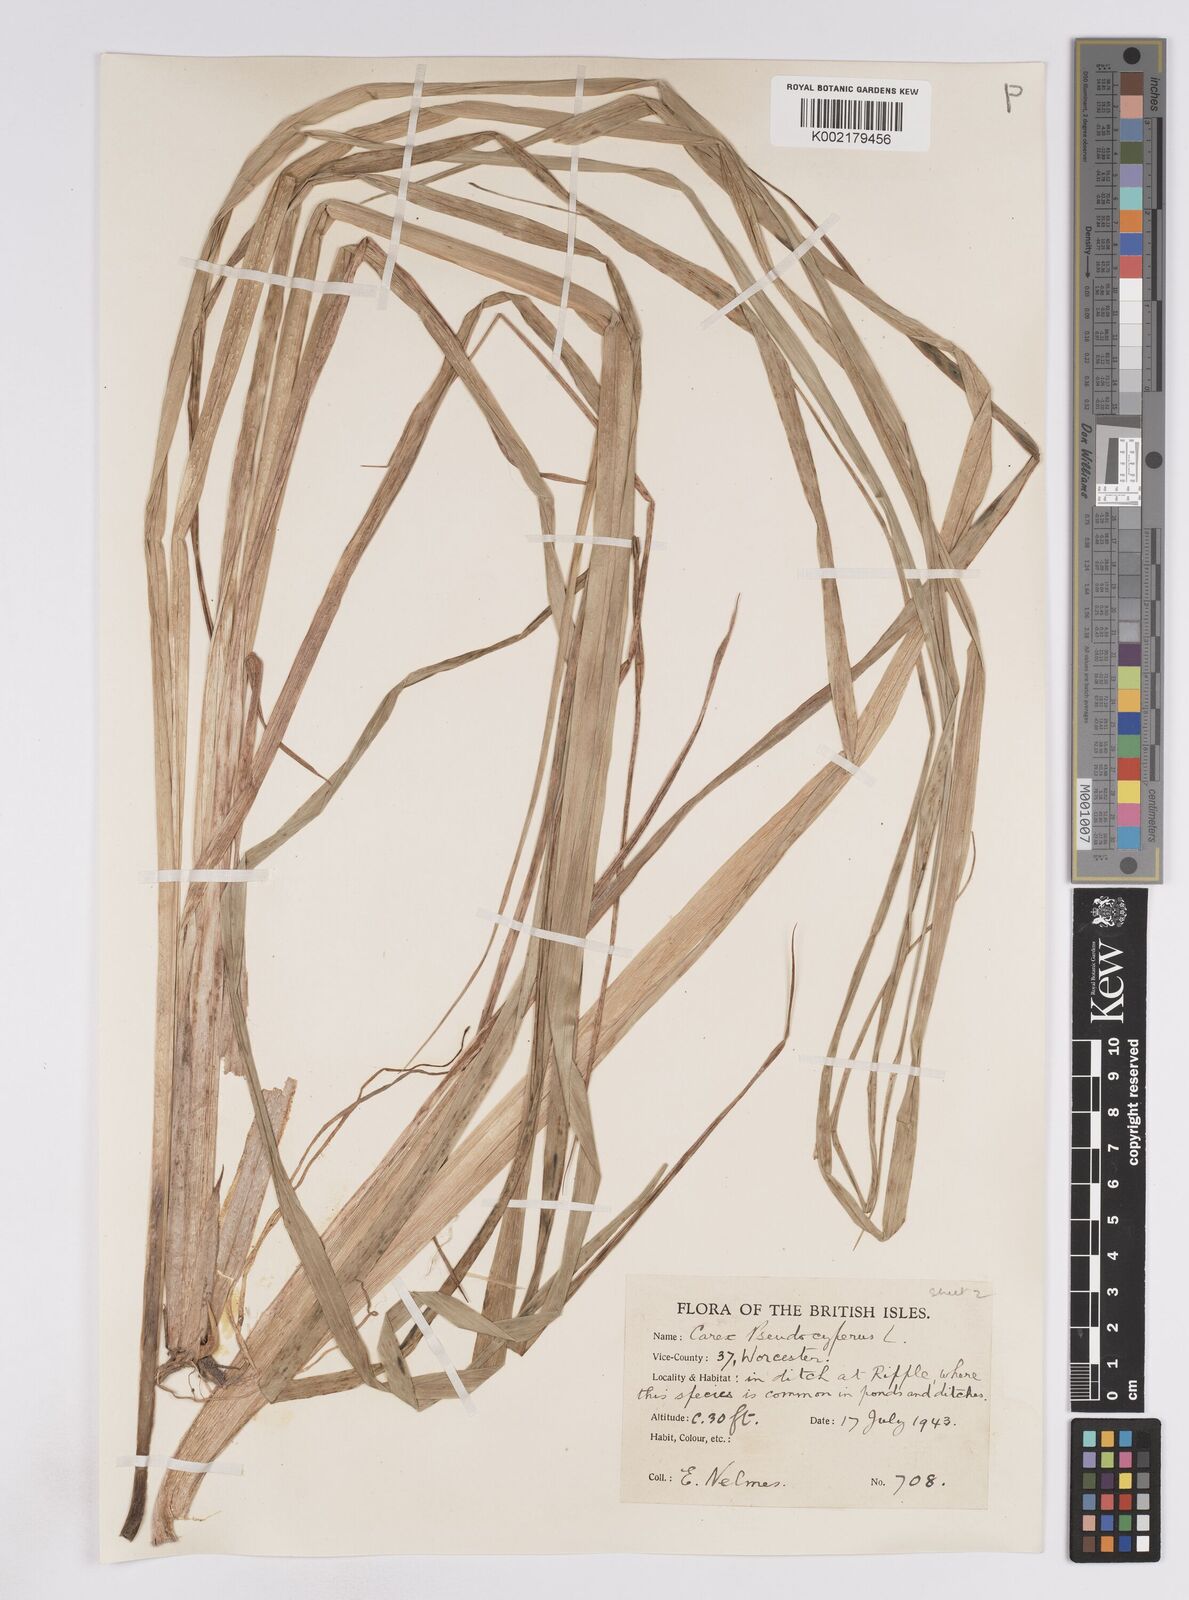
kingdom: Plantae
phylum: Tracheophyta
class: Liliopsida
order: Poales
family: Cyperaceae
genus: Carex
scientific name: Carex pseudocyperus
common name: Cyperus sedge
